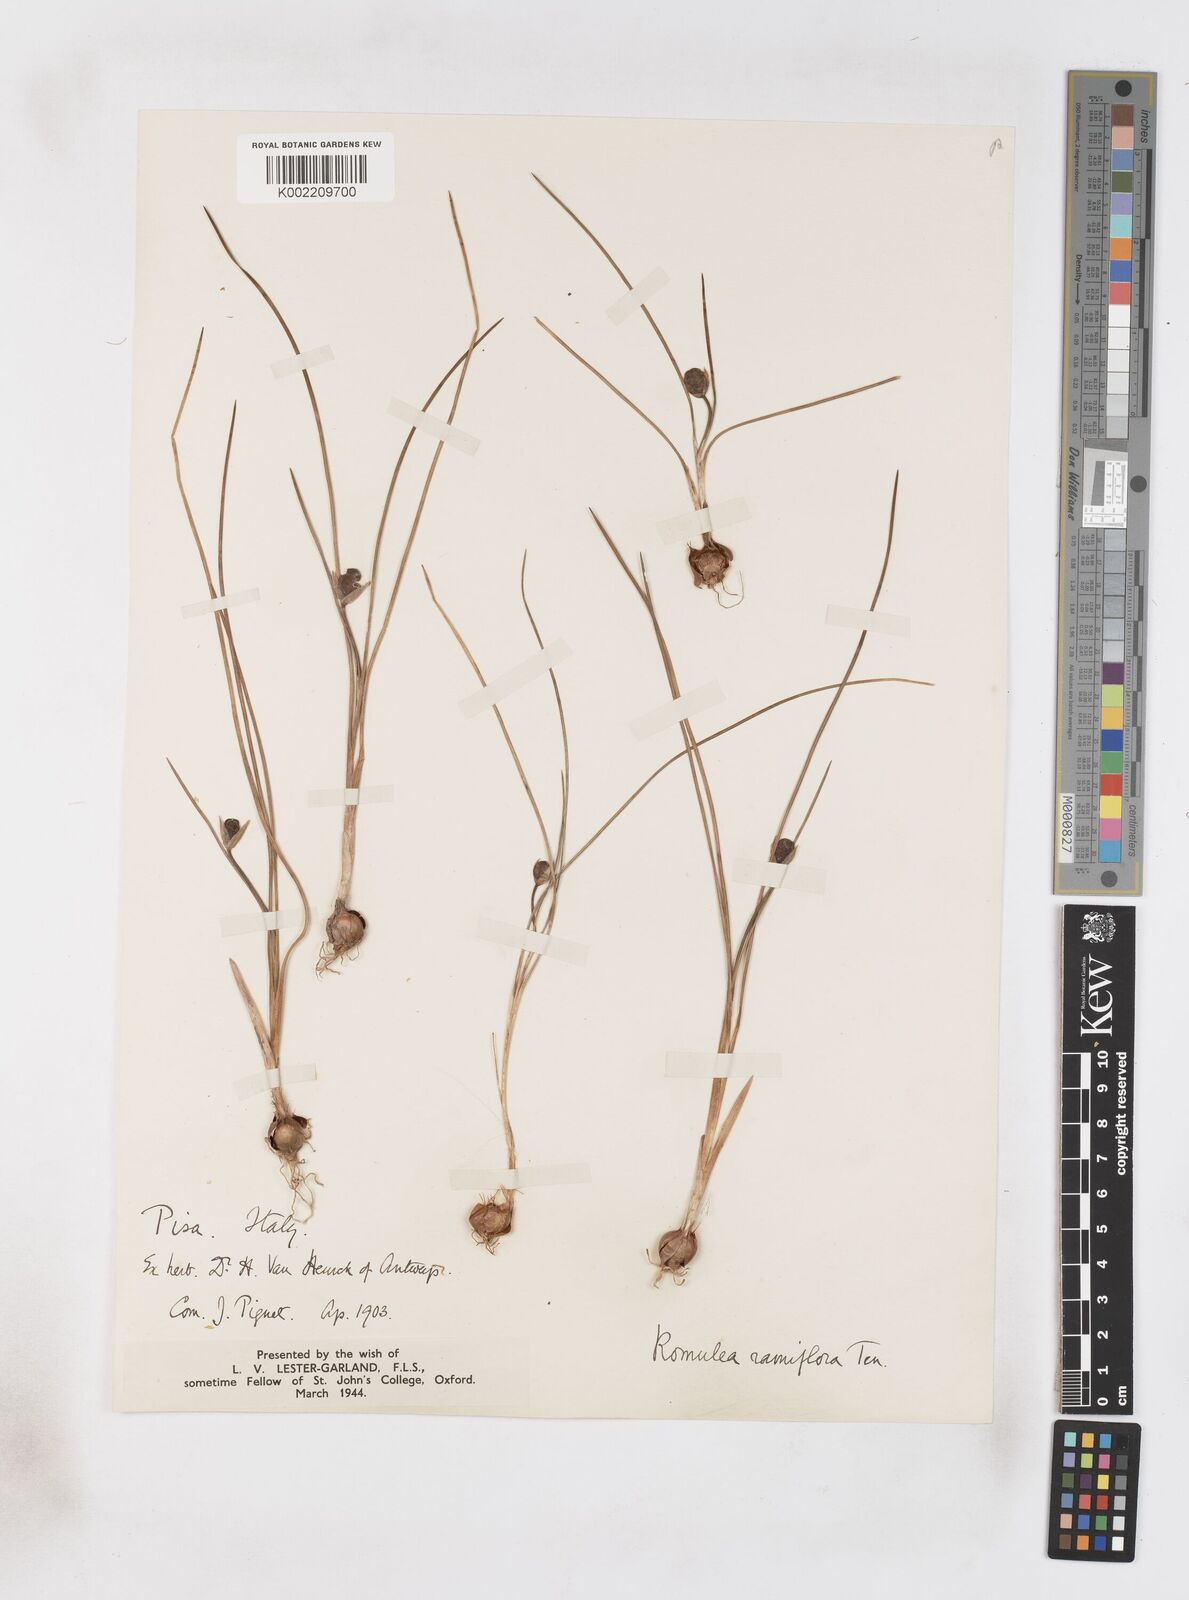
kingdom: Plantae
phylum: Tracheophyta
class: Liliopsida
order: Asparagales
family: Iridaceae
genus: Romulea
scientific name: Romulea ramiflora
